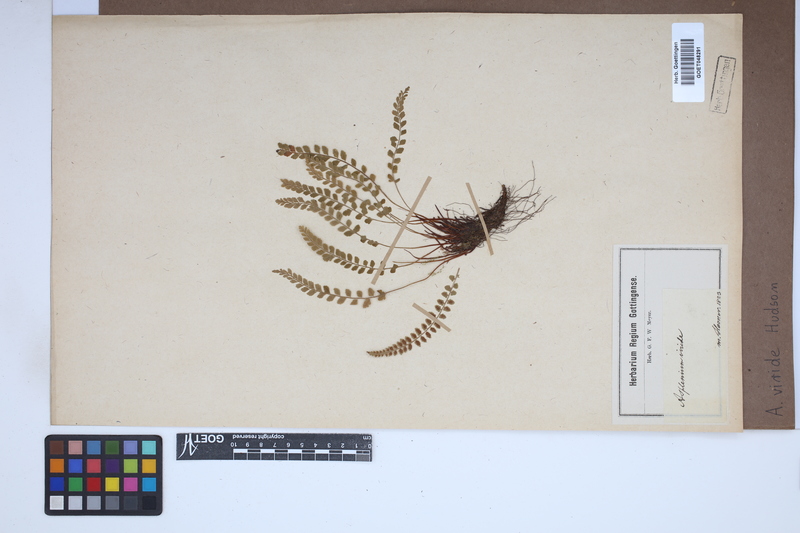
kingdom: Plantae
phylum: Tracheophyta
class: Polypodiopsida
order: Polypodiales
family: Aspleniaceae
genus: Asplenium
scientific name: Asplenium viride
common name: Green spleenwort
